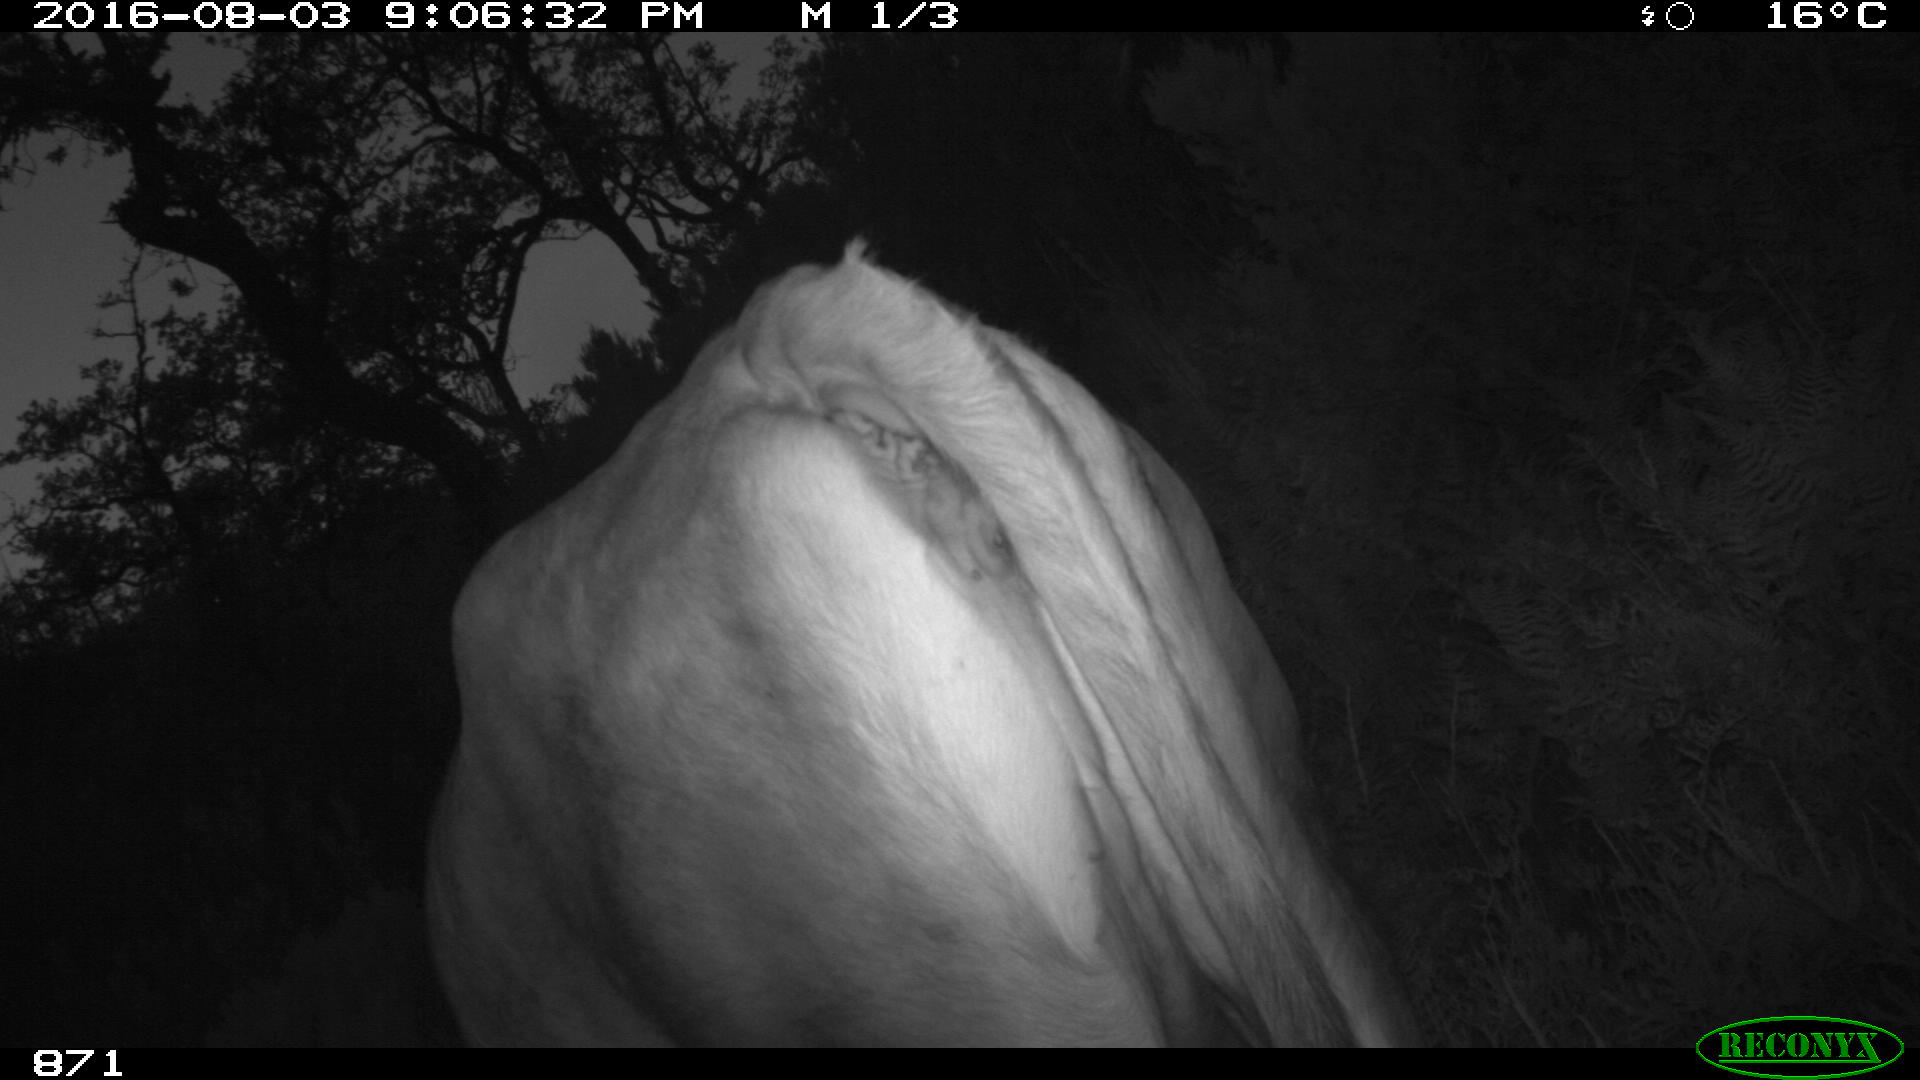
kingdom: Animalia
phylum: Chordata
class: Mammalia
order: Artiodactyla
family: Bovidae
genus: Bos
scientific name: Bos taurus
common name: Domesticated cattle
